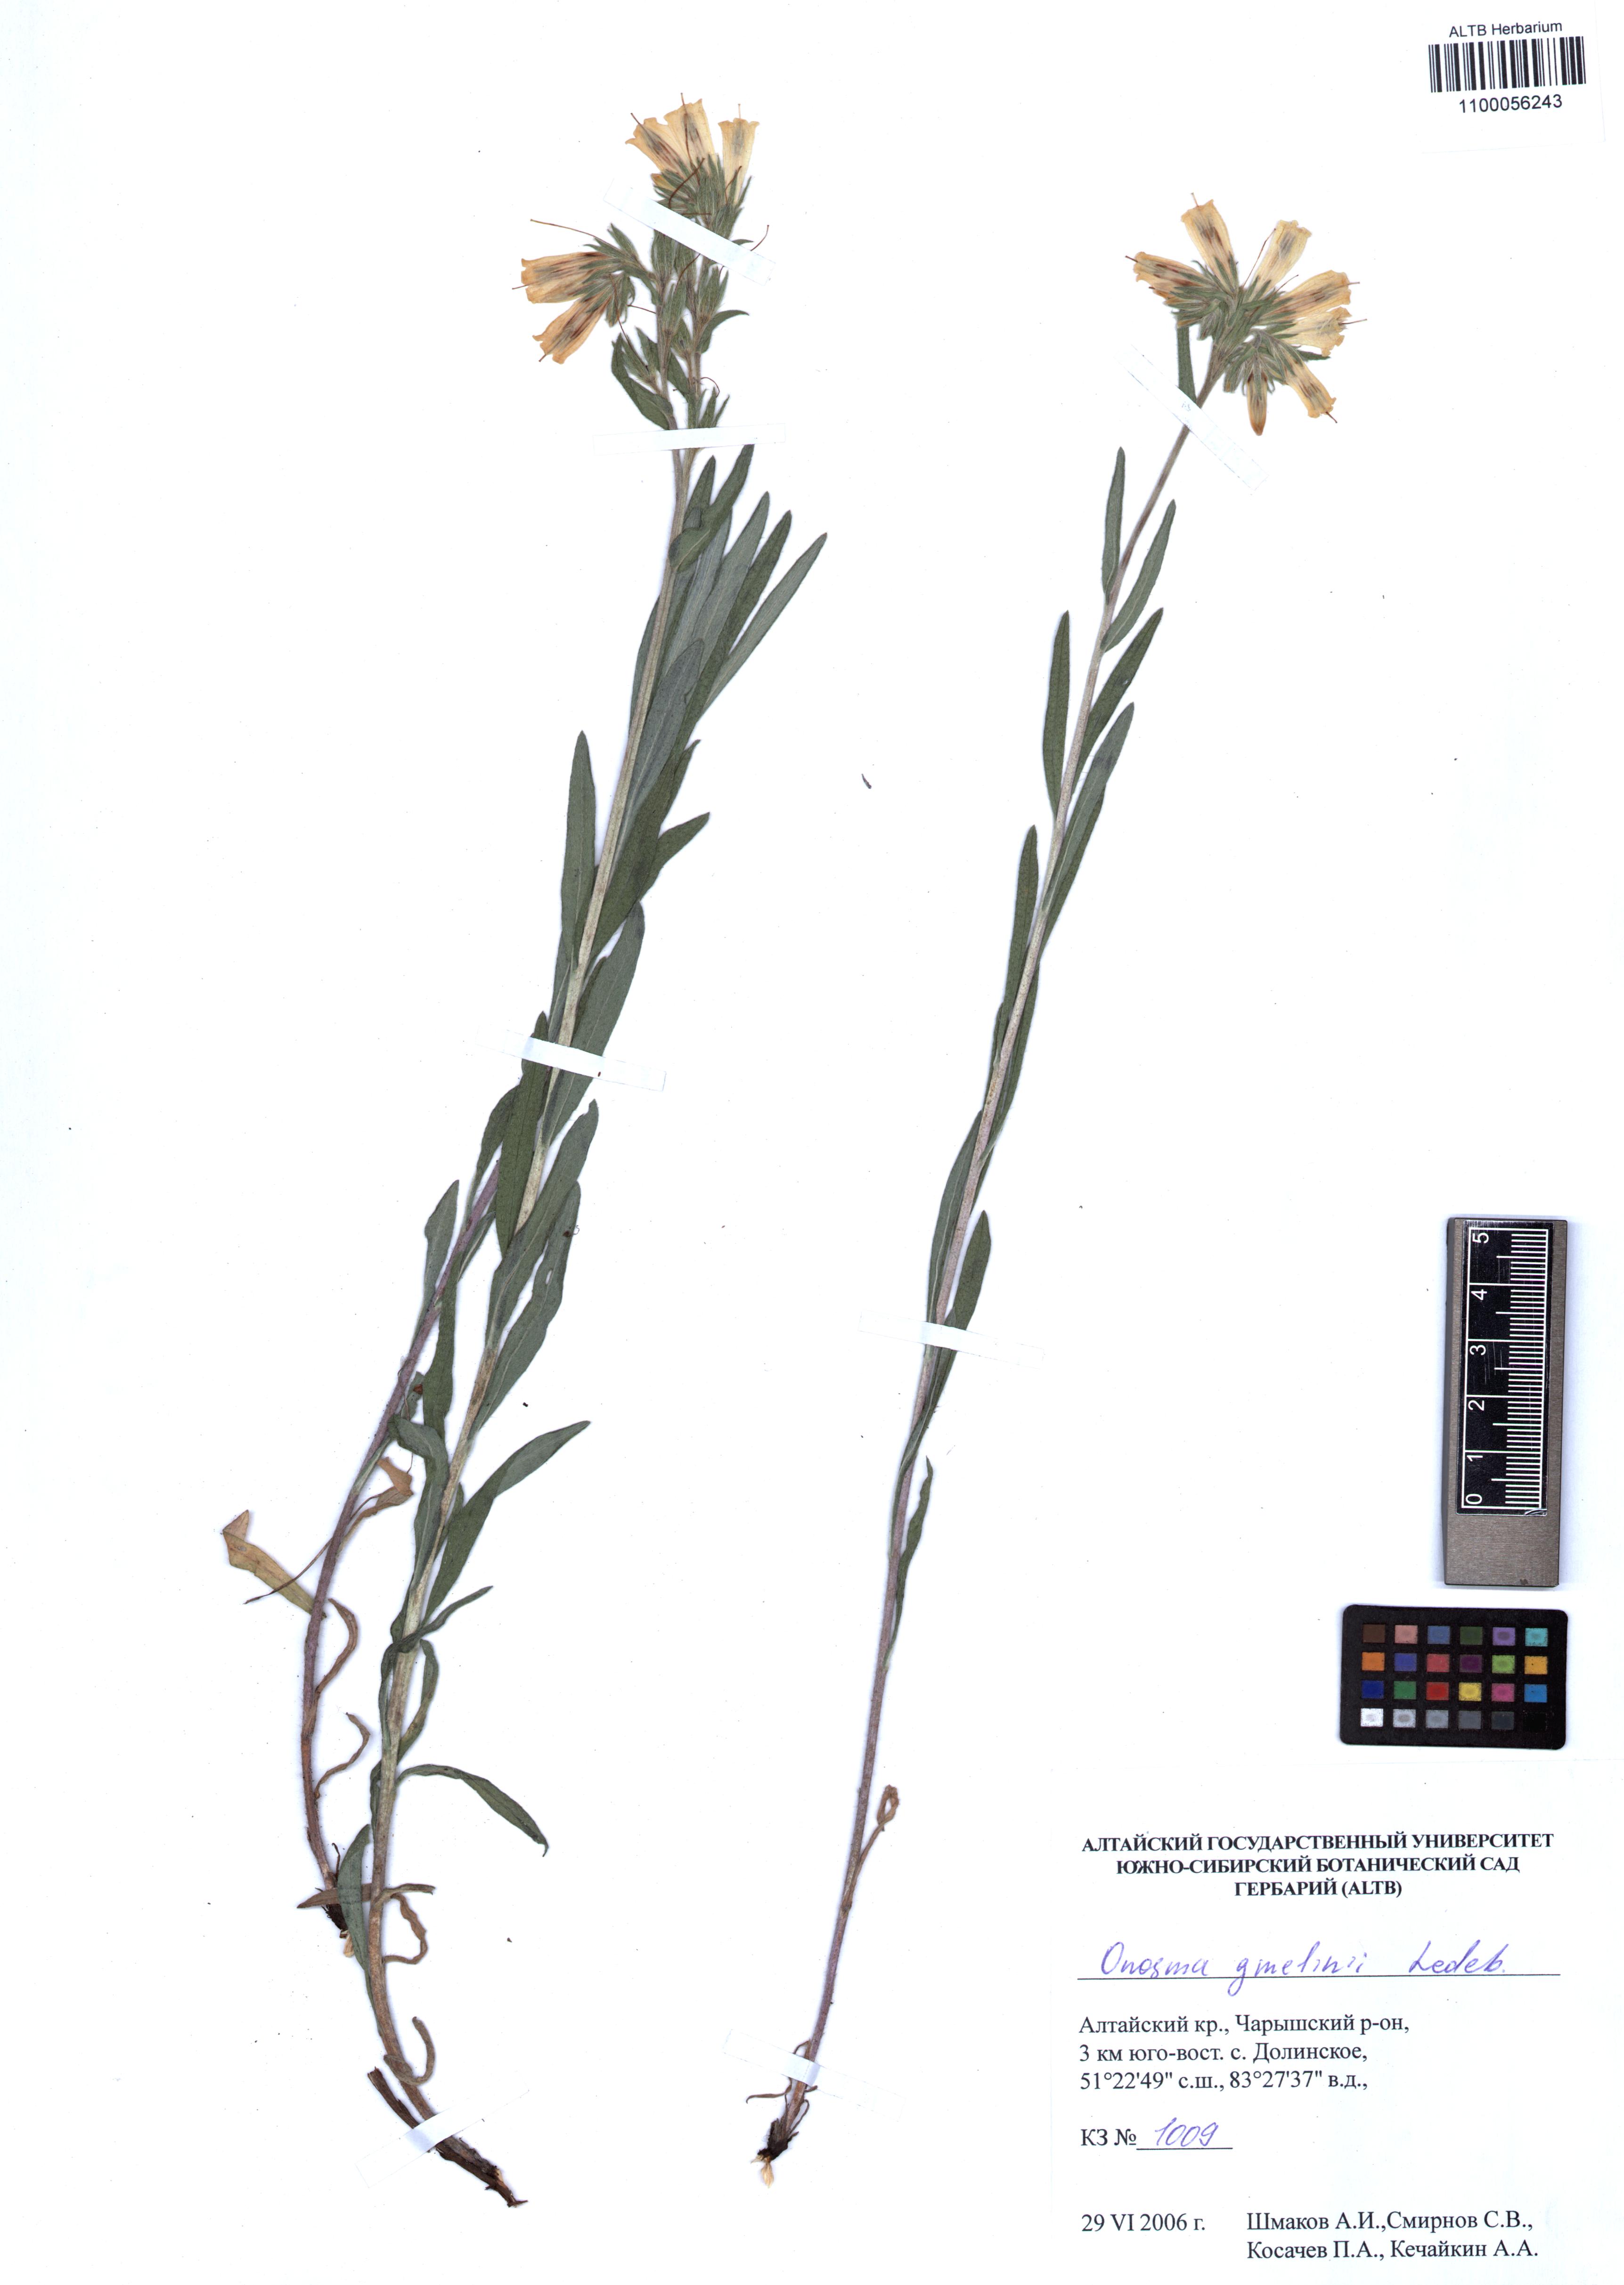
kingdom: Plantae
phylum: Tracheophyta
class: Magnoliopsida
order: Boraginales
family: Boraginaceae
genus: Onosma
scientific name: Onosma gmelinii
